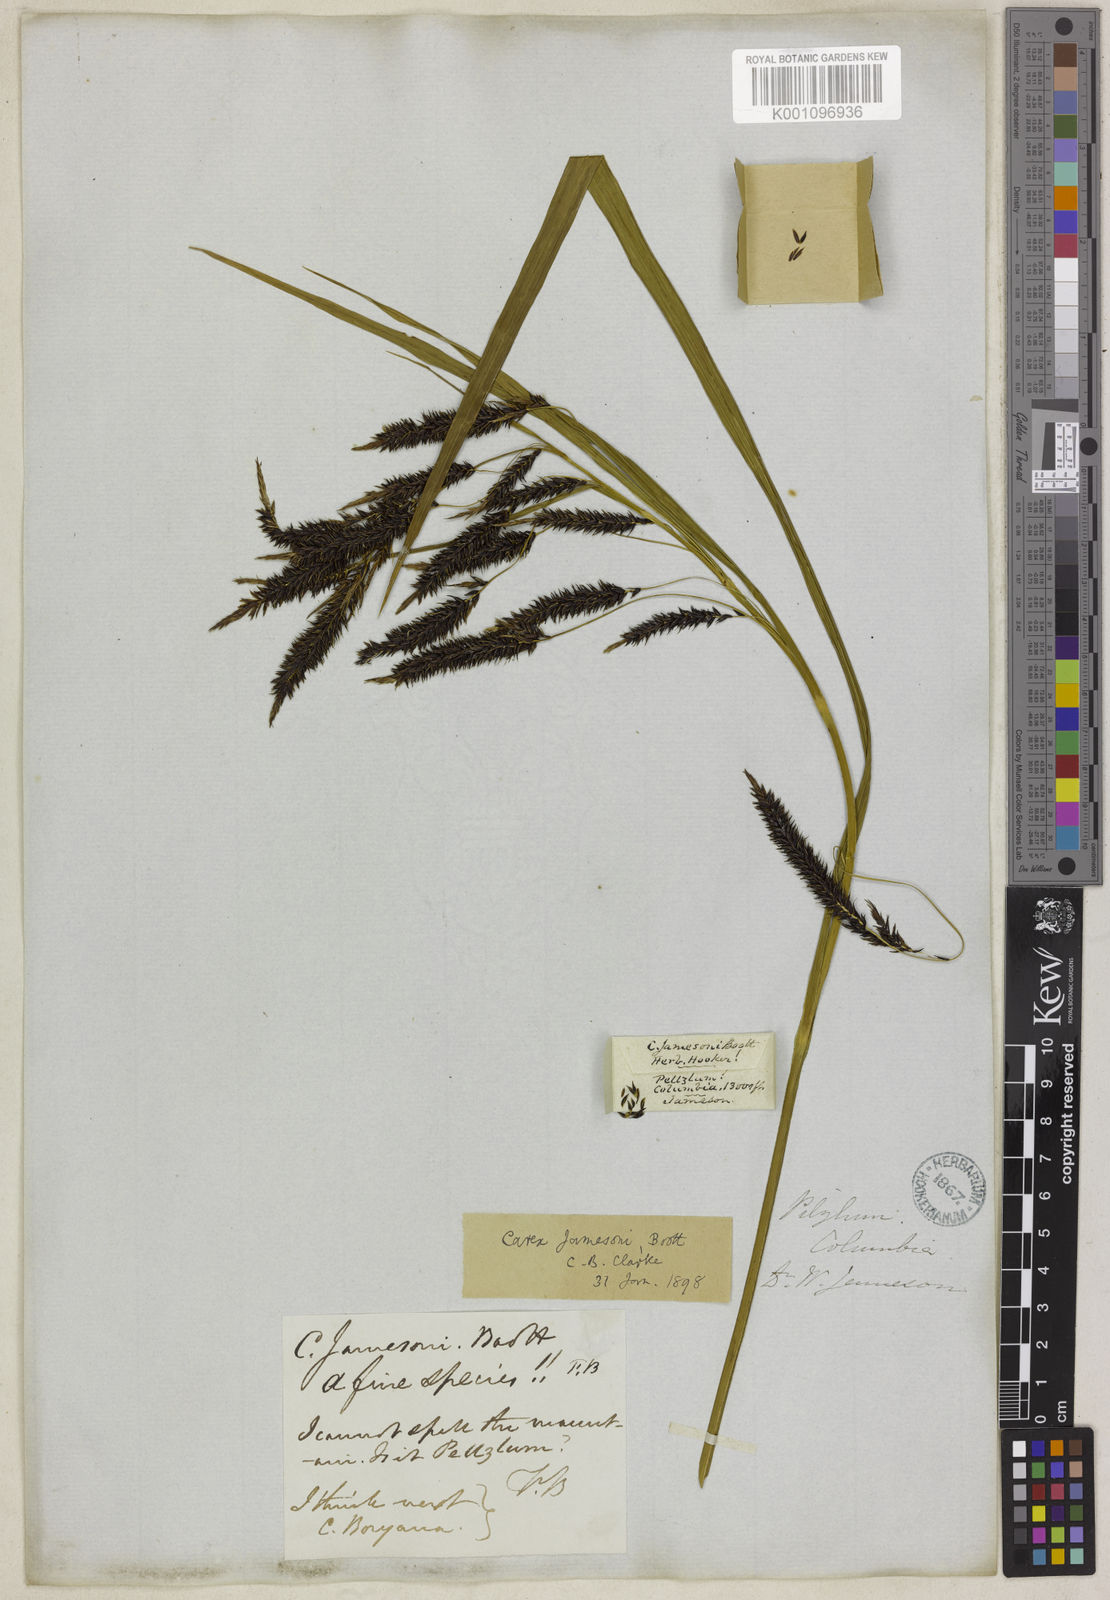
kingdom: Plantae
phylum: Tracheophyta
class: Liliopsida
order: Poales
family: Cyperaceae
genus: Carex
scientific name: Carex jamesonii
